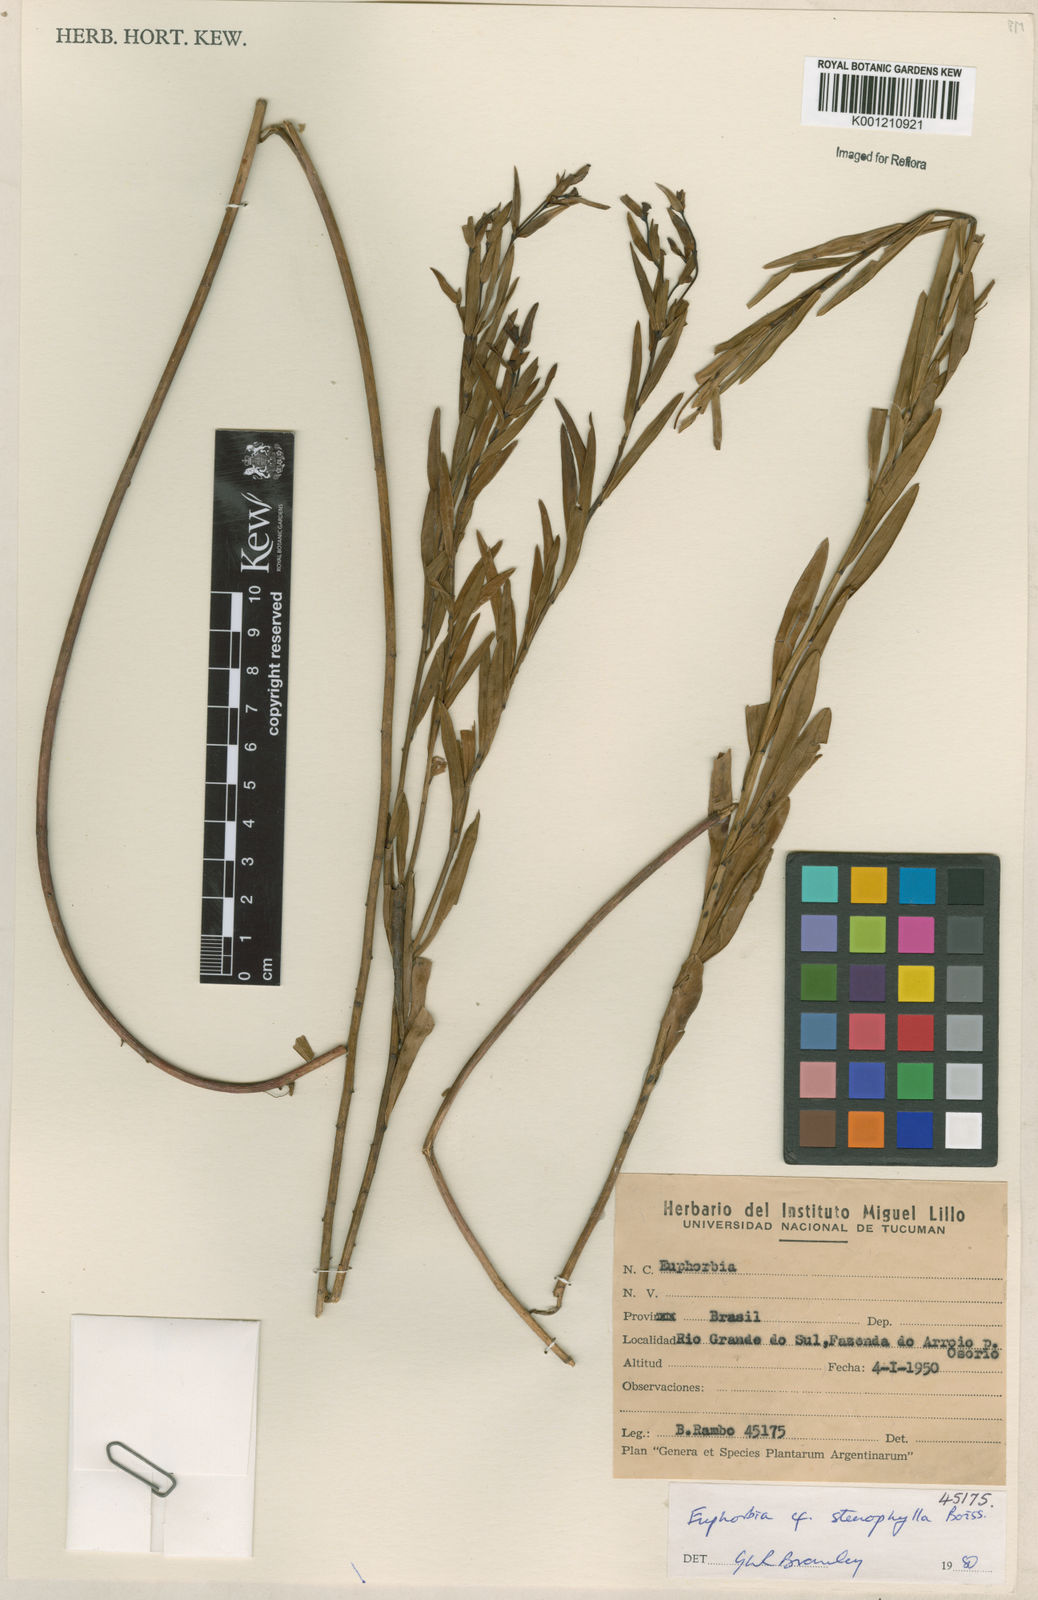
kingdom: Plantae
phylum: Tracheophyta
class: Magnoliopsida
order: Malpighiales
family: Euphorbiaceae
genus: Euphorbia
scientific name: Euphorbia stenophylla
